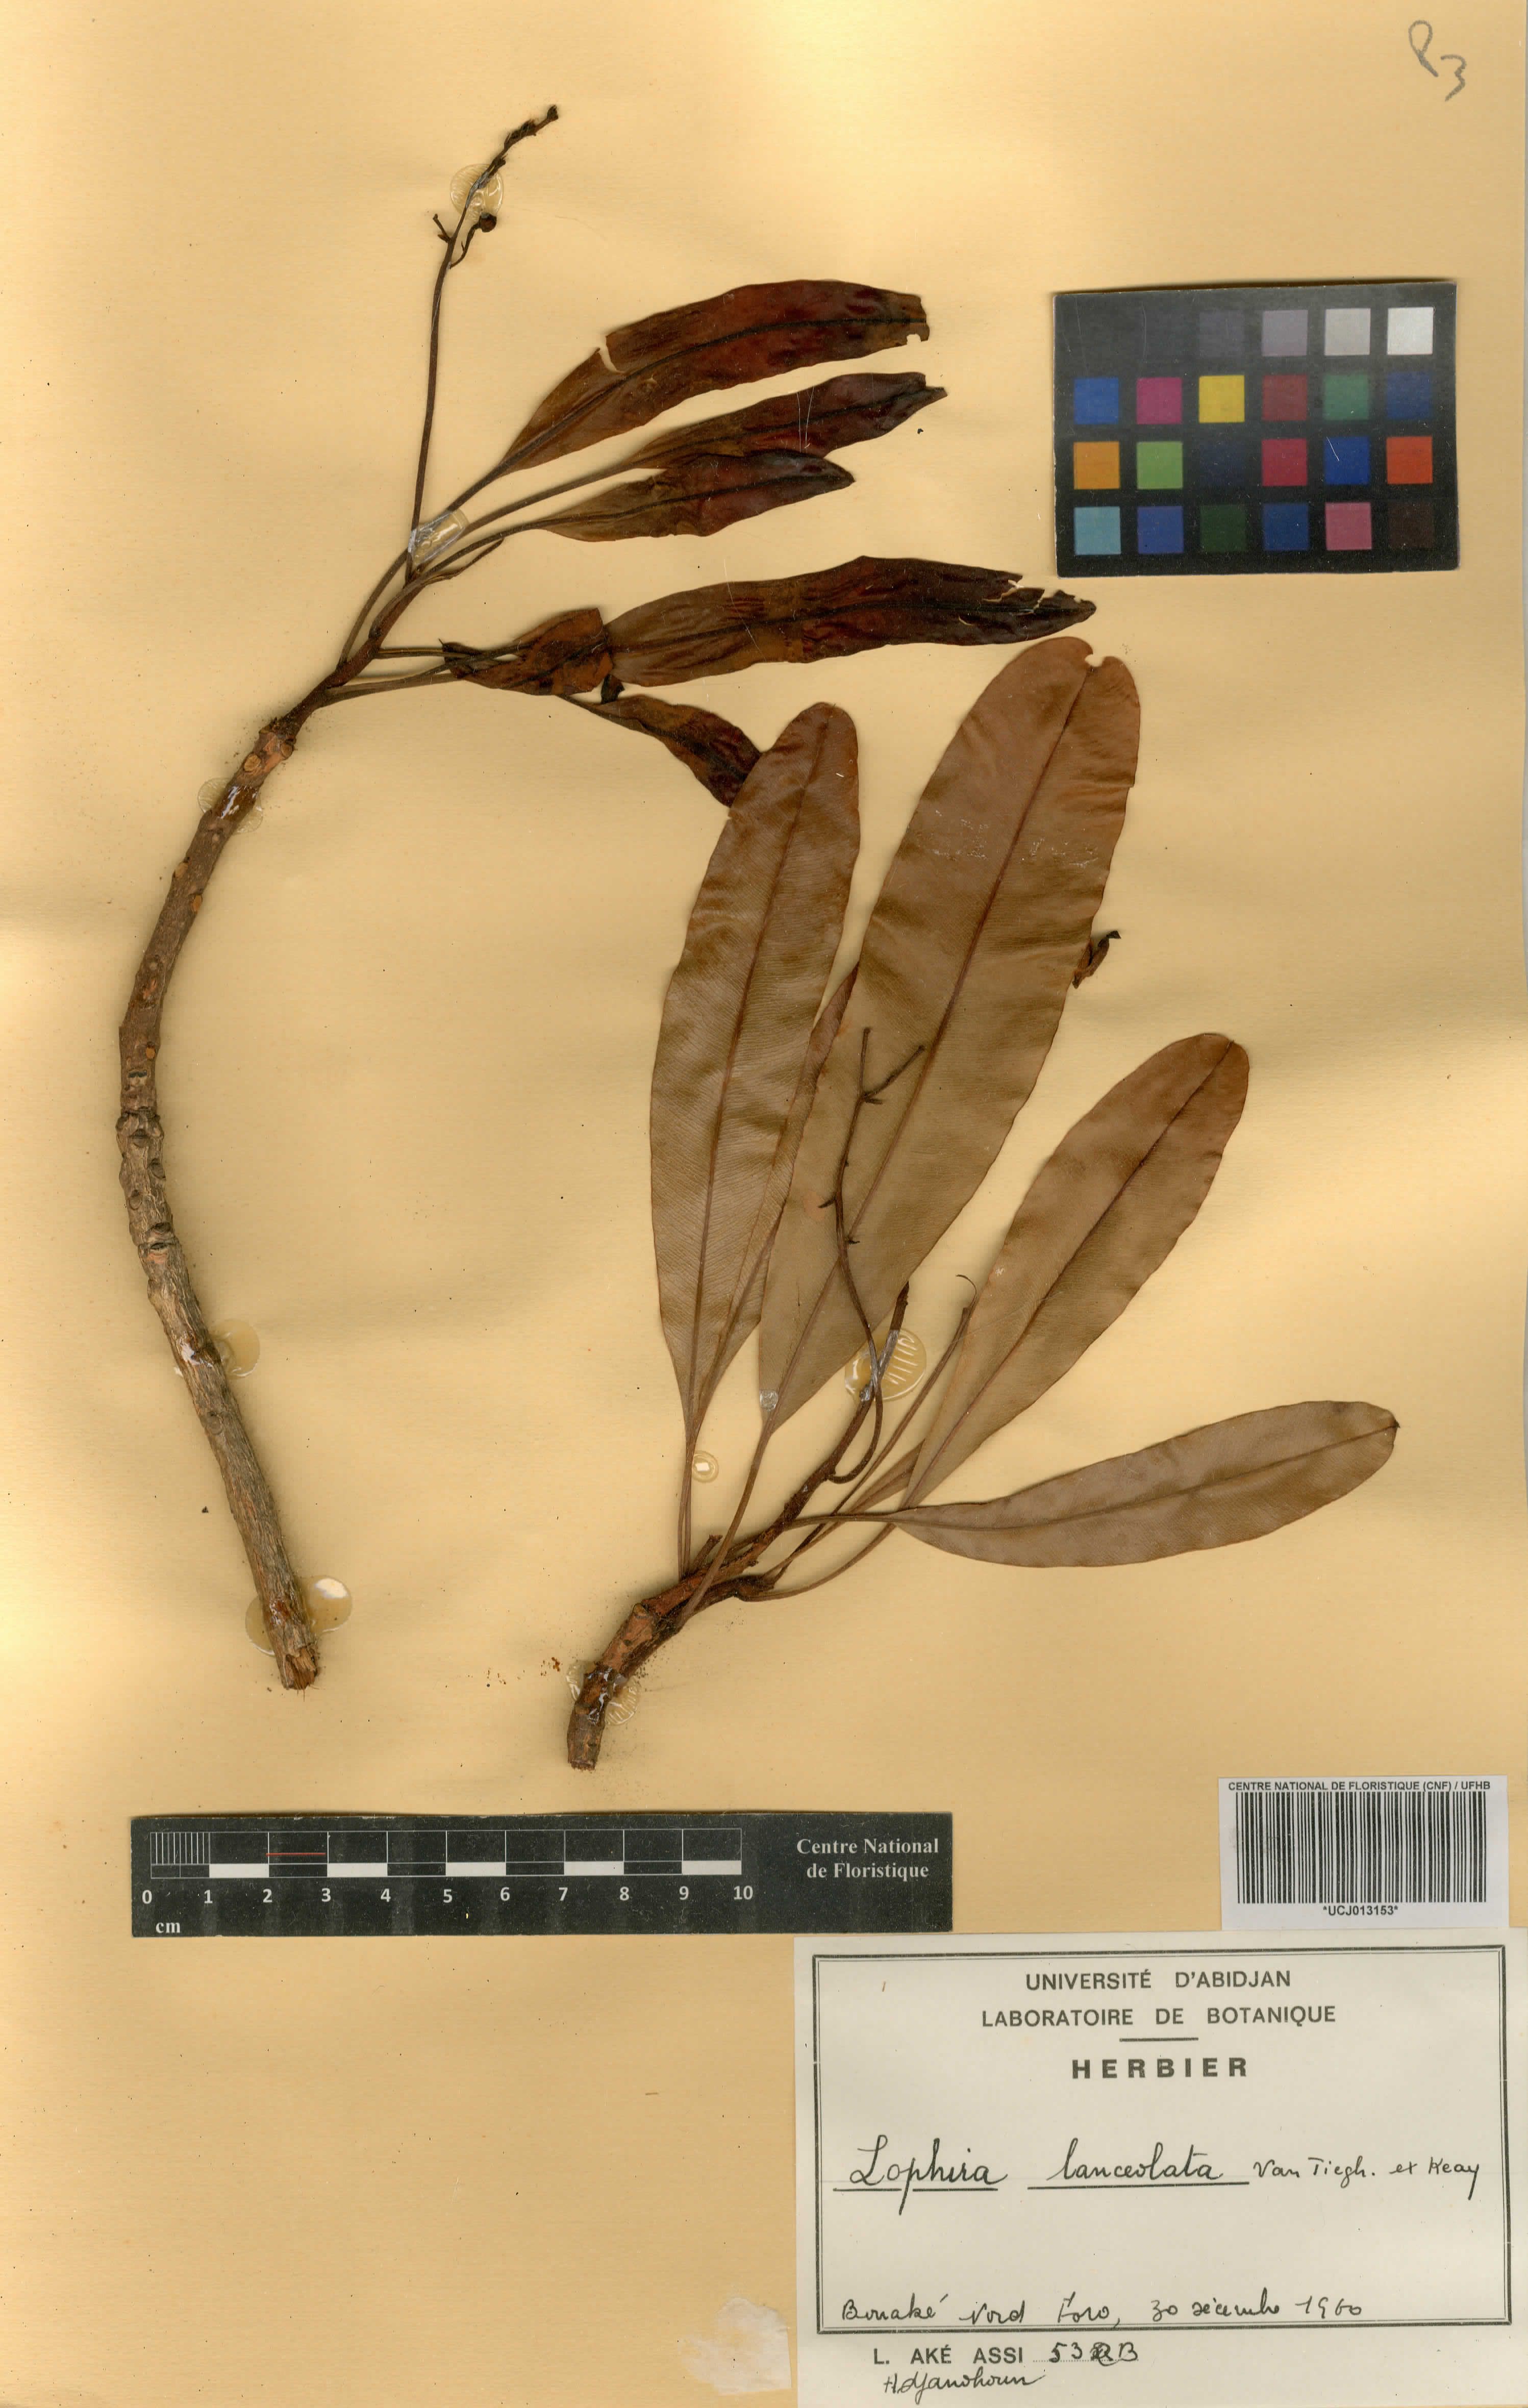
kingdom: Plantae
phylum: Tracheophyta
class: Magnoliopsida
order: Malpighiales
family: Ochnaceae
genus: Lophira
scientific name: Lophira lanceolata
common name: Dwarf red ironwood
